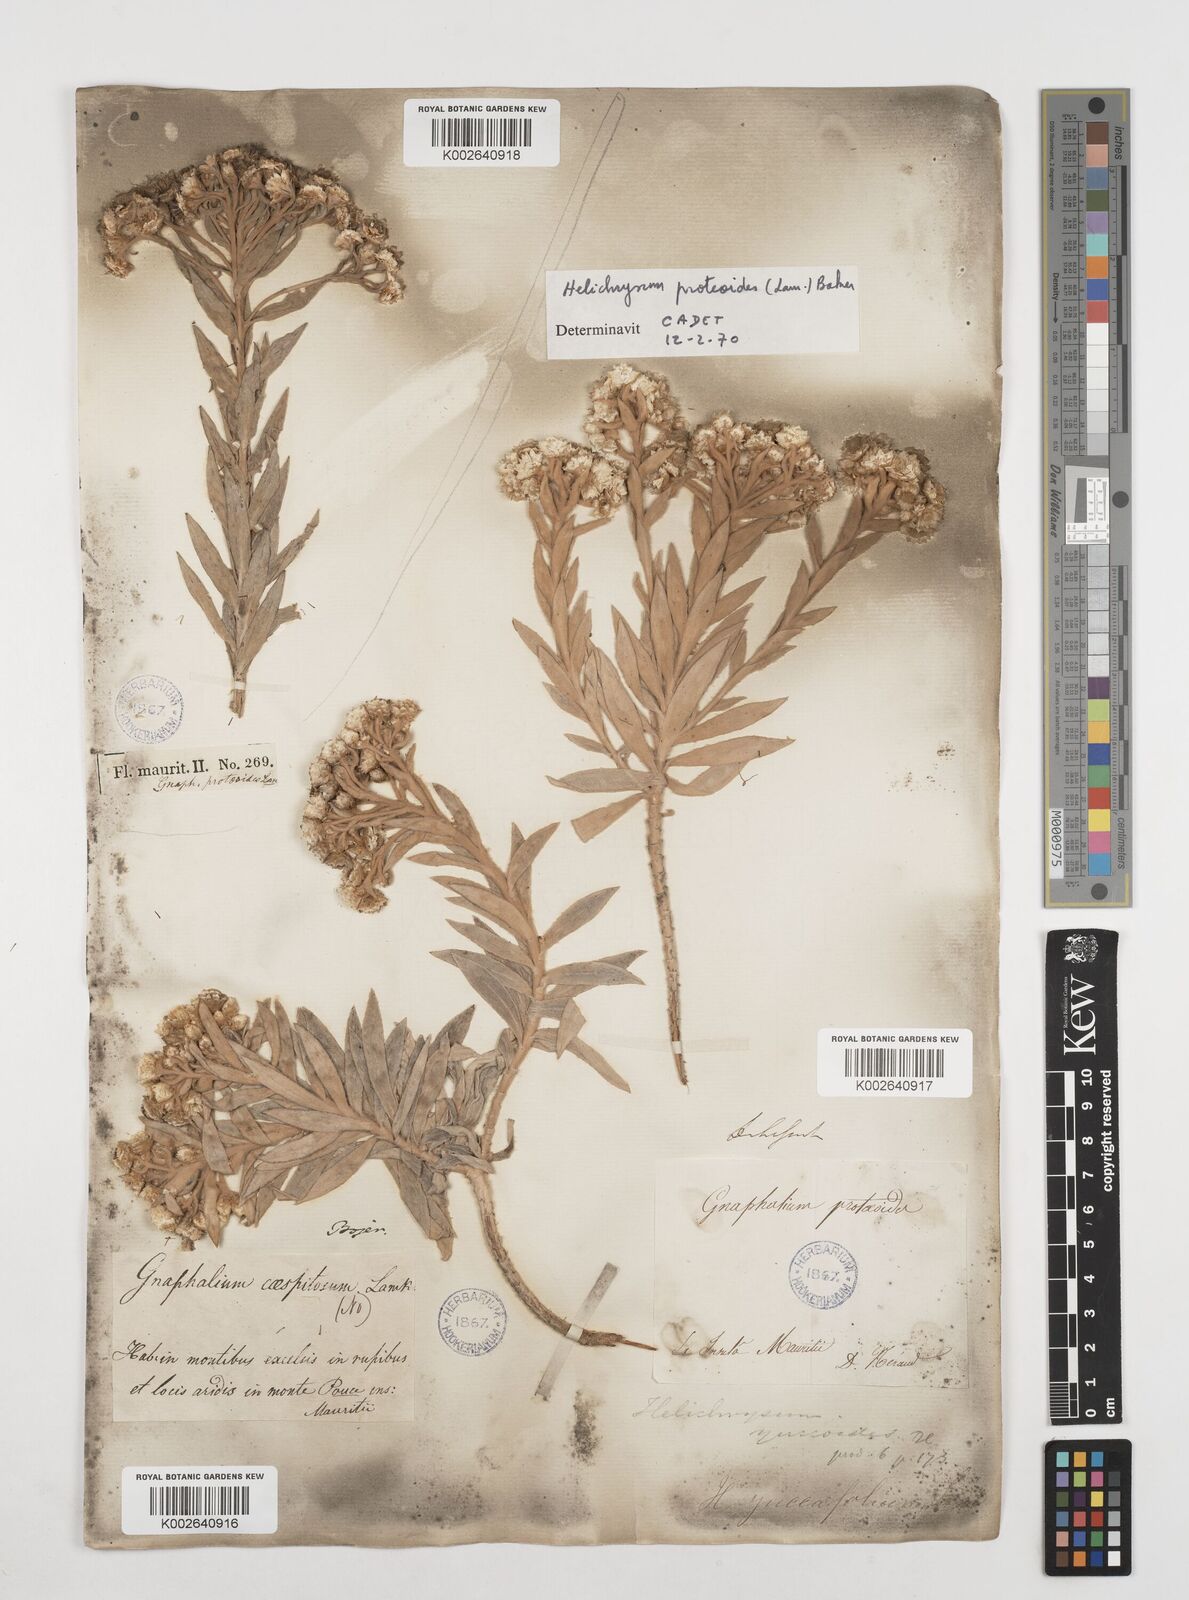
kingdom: Plantae
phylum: Tracheophyta
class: Magnoliopsida
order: Asterales
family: Asteraceae
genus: Helichrysum
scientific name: Helichrysum proteoides
